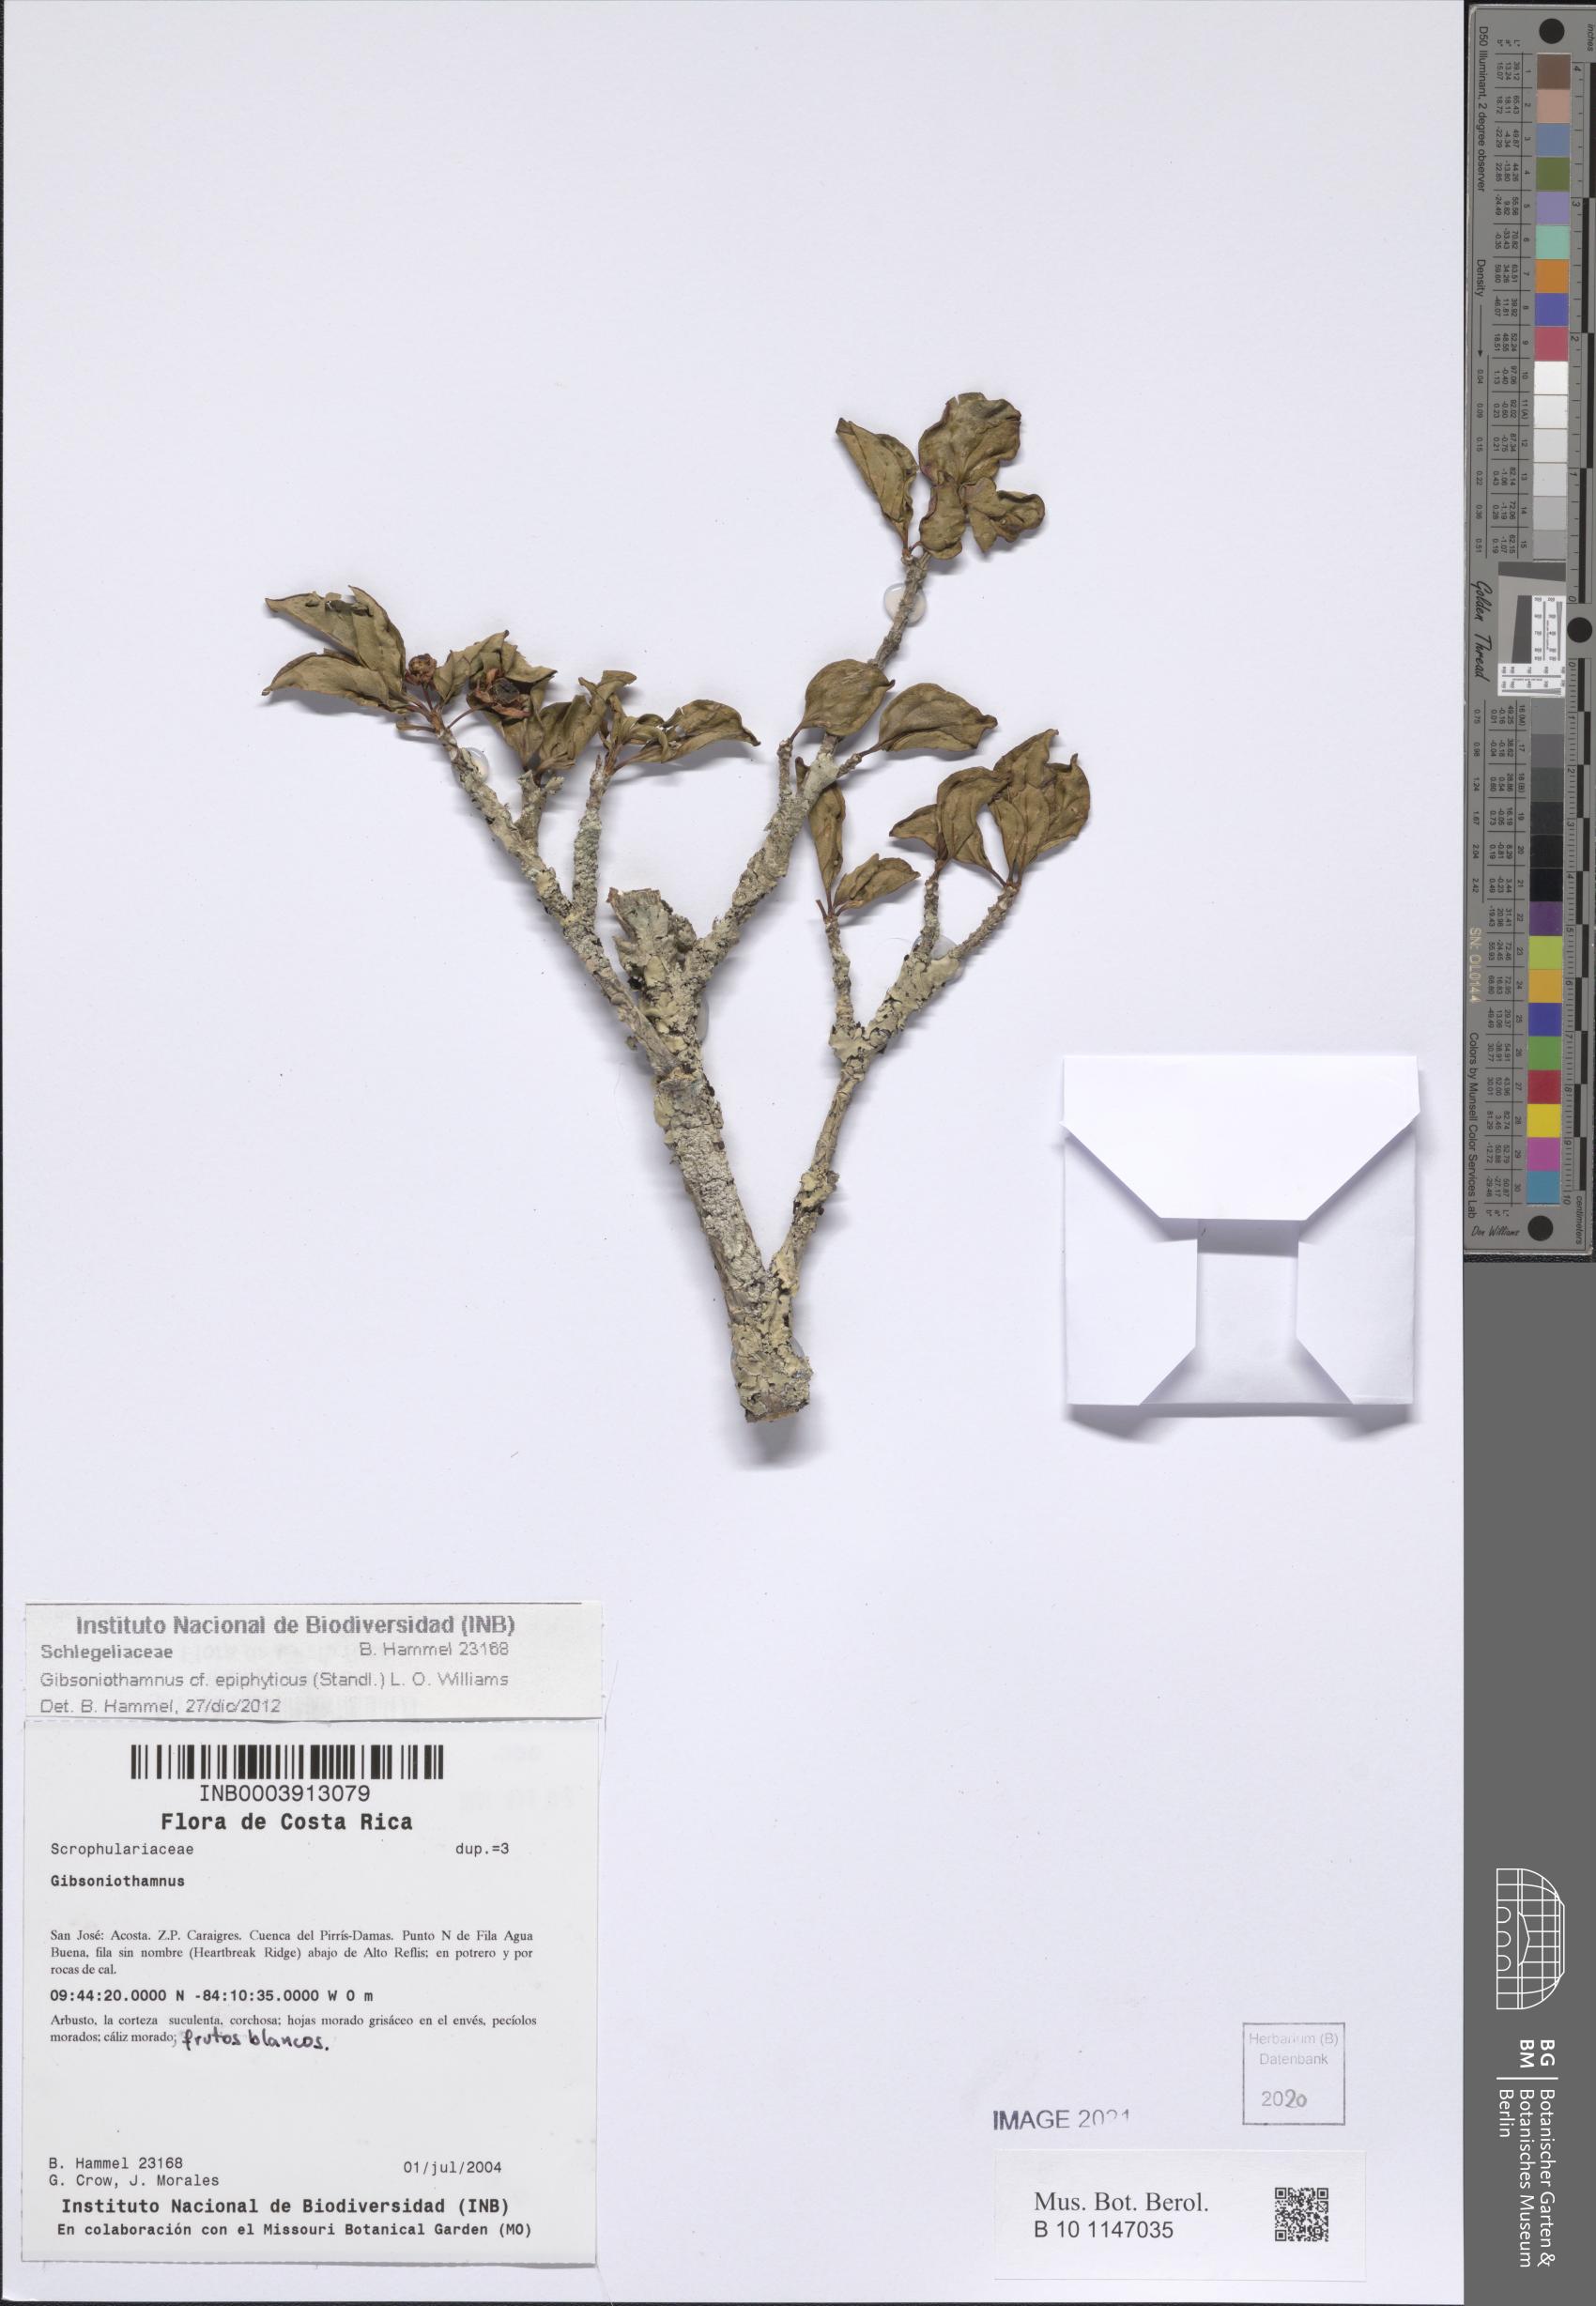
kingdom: Plantae
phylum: Tracheophyta
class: Magnoliopsida
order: Lamiales
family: Schlegeliaceae
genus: Gibsoniothamnus
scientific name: Gibsoniothamnus epiphyticus
